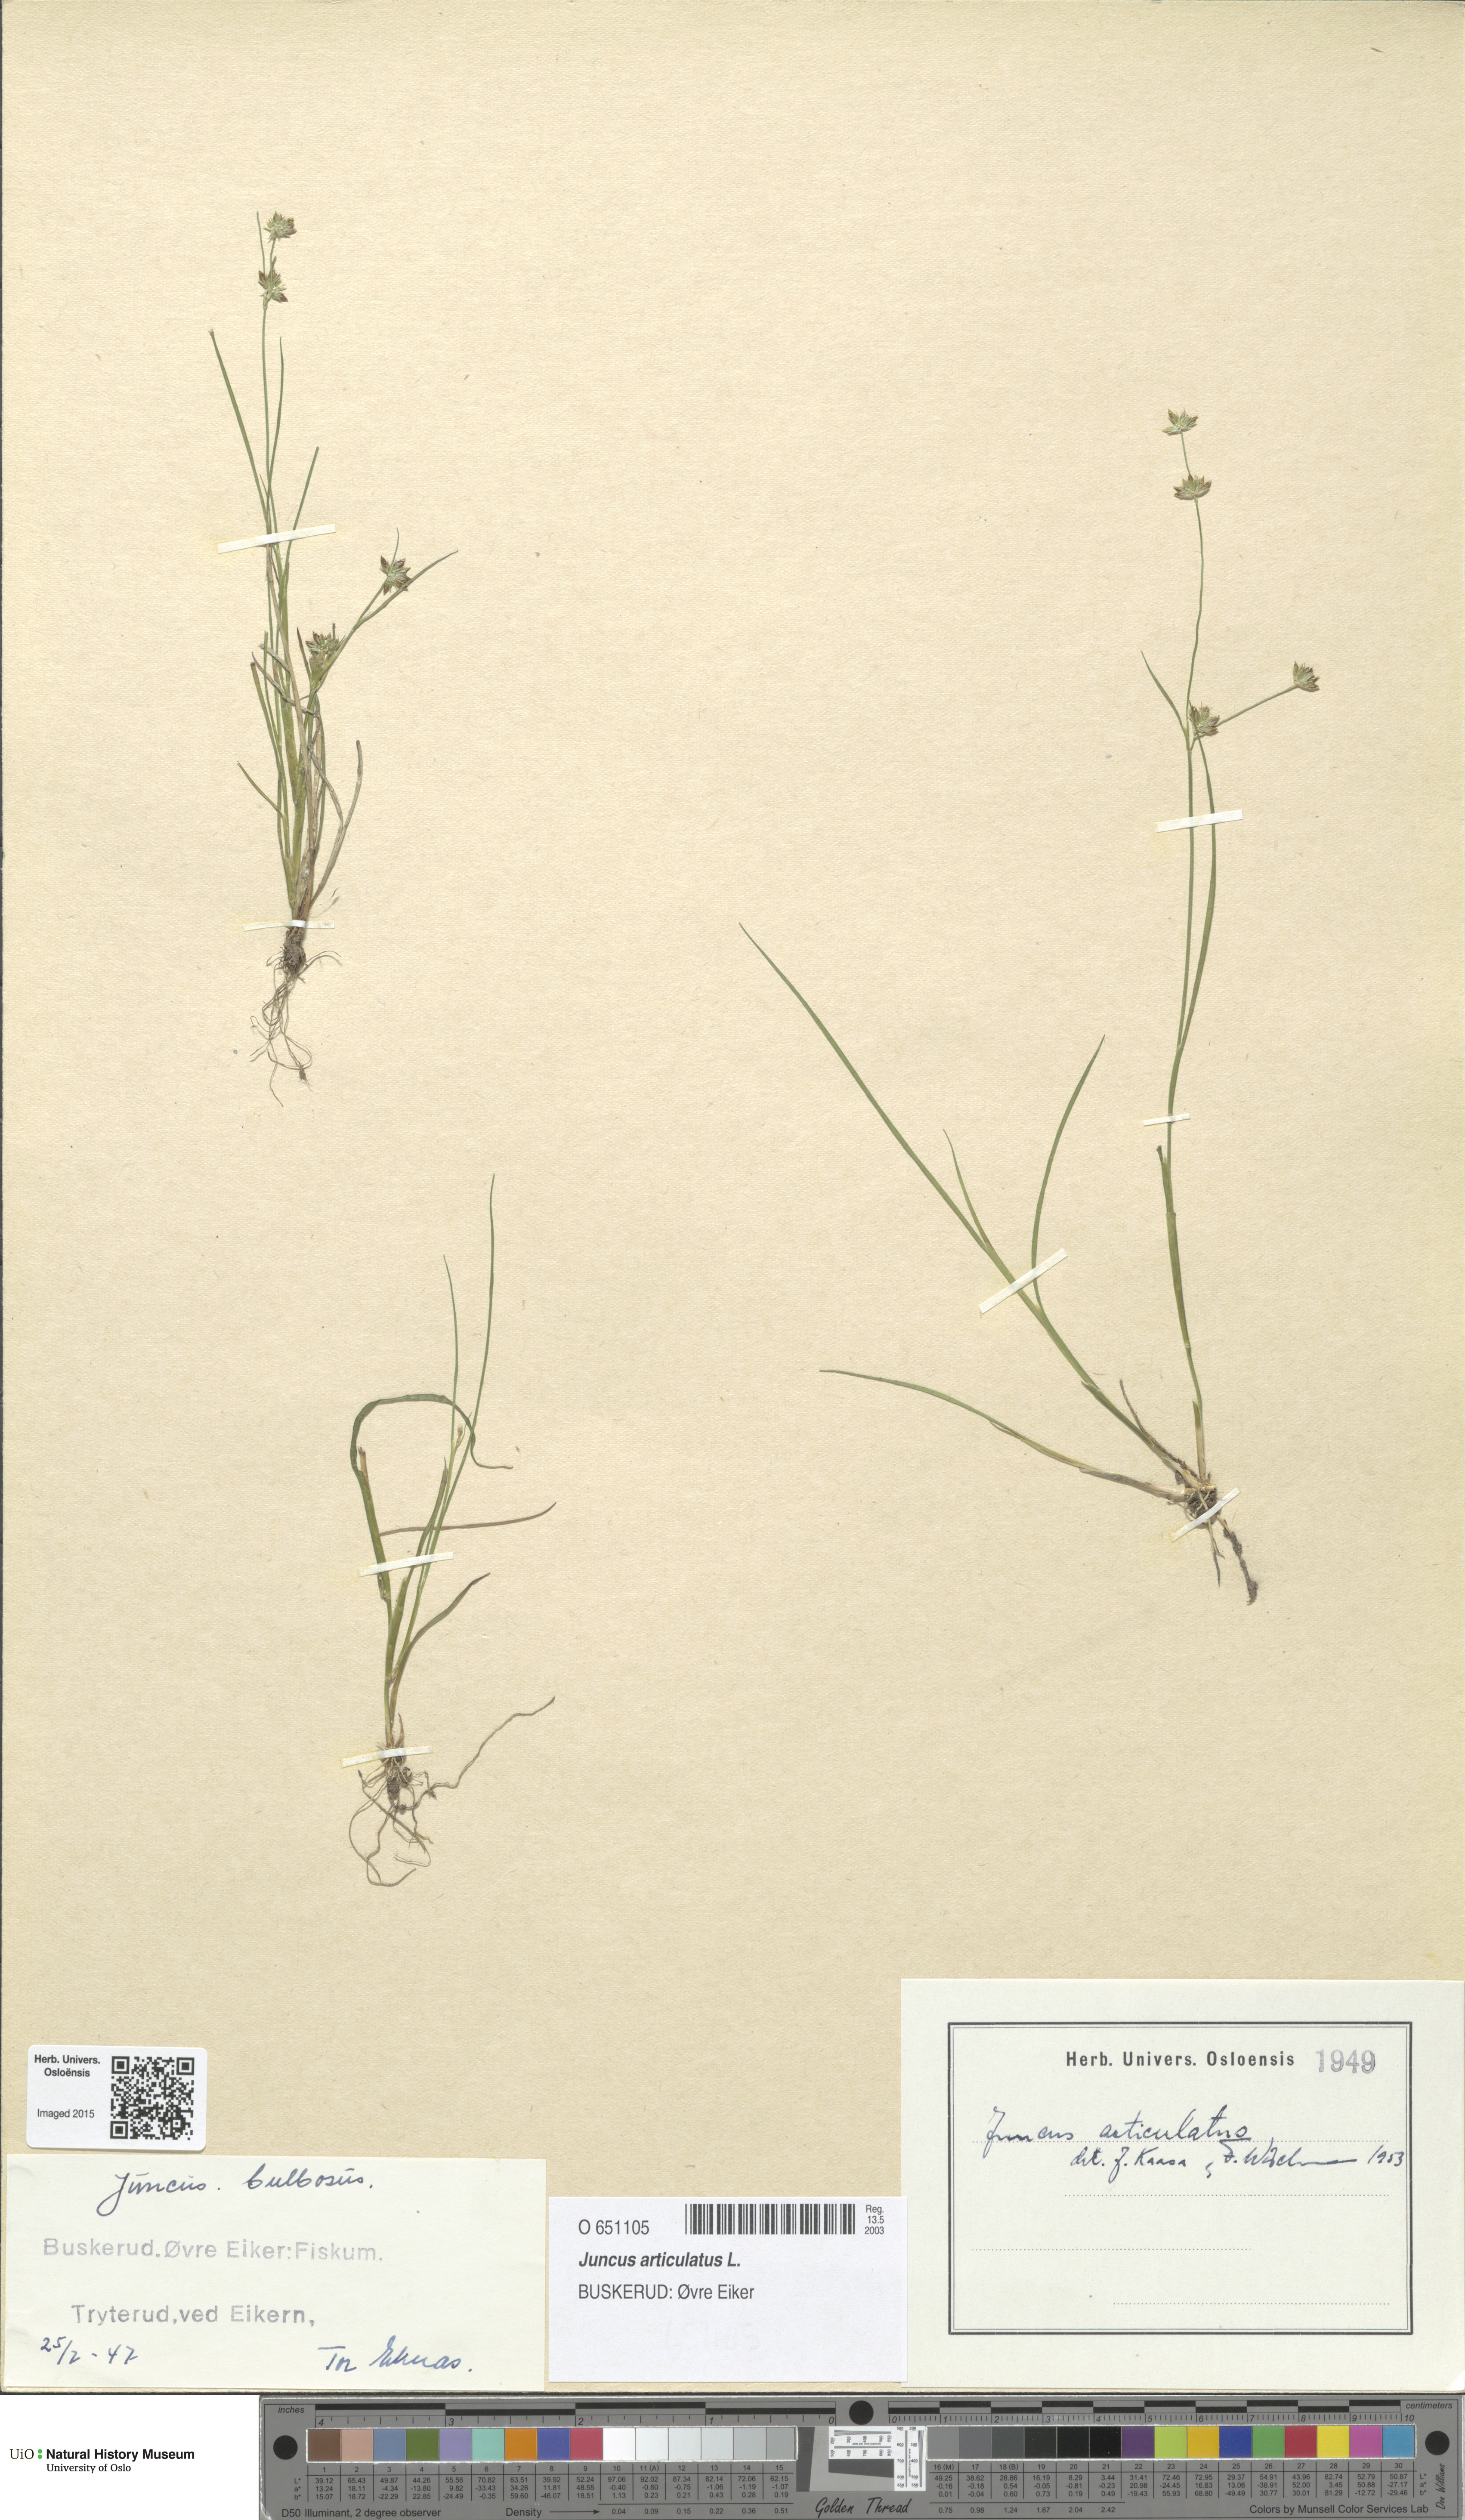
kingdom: Plantae
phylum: Tracheophyta
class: Liliopsida
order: Poales
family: Juncaceae
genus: Juncus
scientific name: Juncus articulatus
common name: Jointed rush
